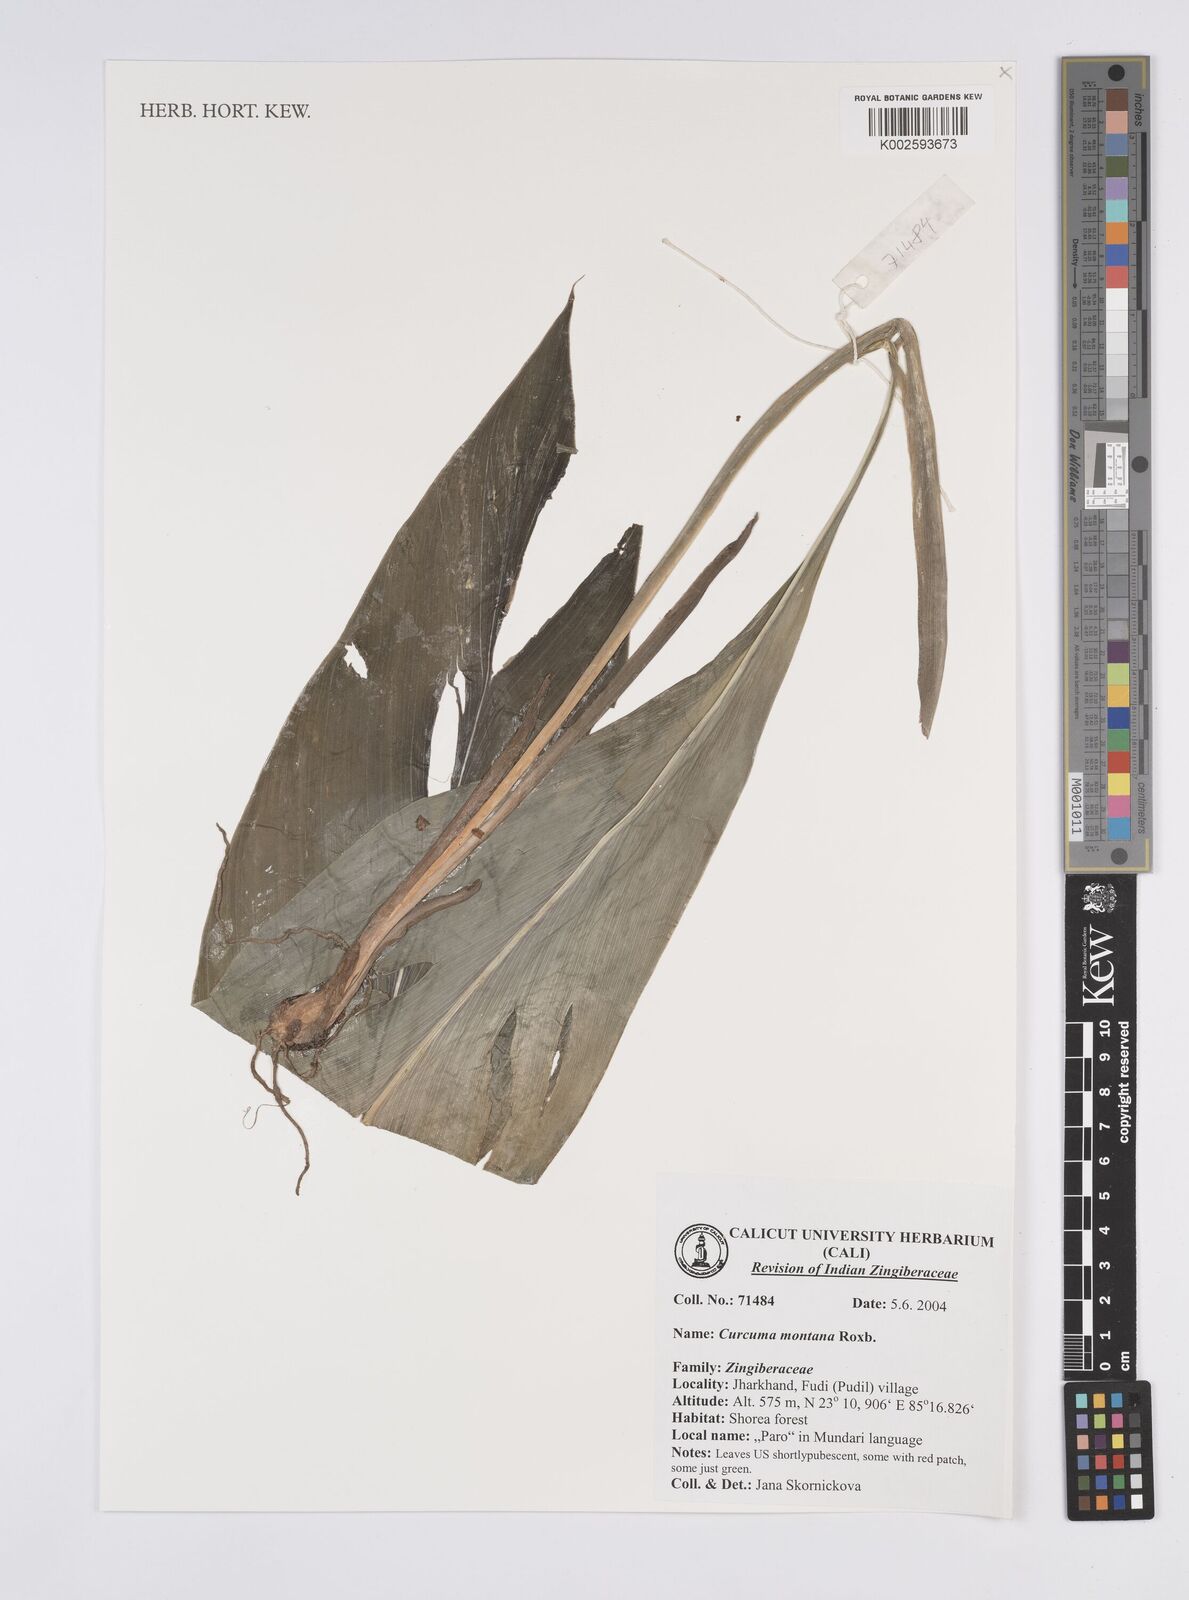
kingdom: Plantae
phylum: Tracheophyta
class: Liliopsida
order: Zingiberales
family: Zingiberaceae
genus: Curcuma
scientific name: Curcuma montana
